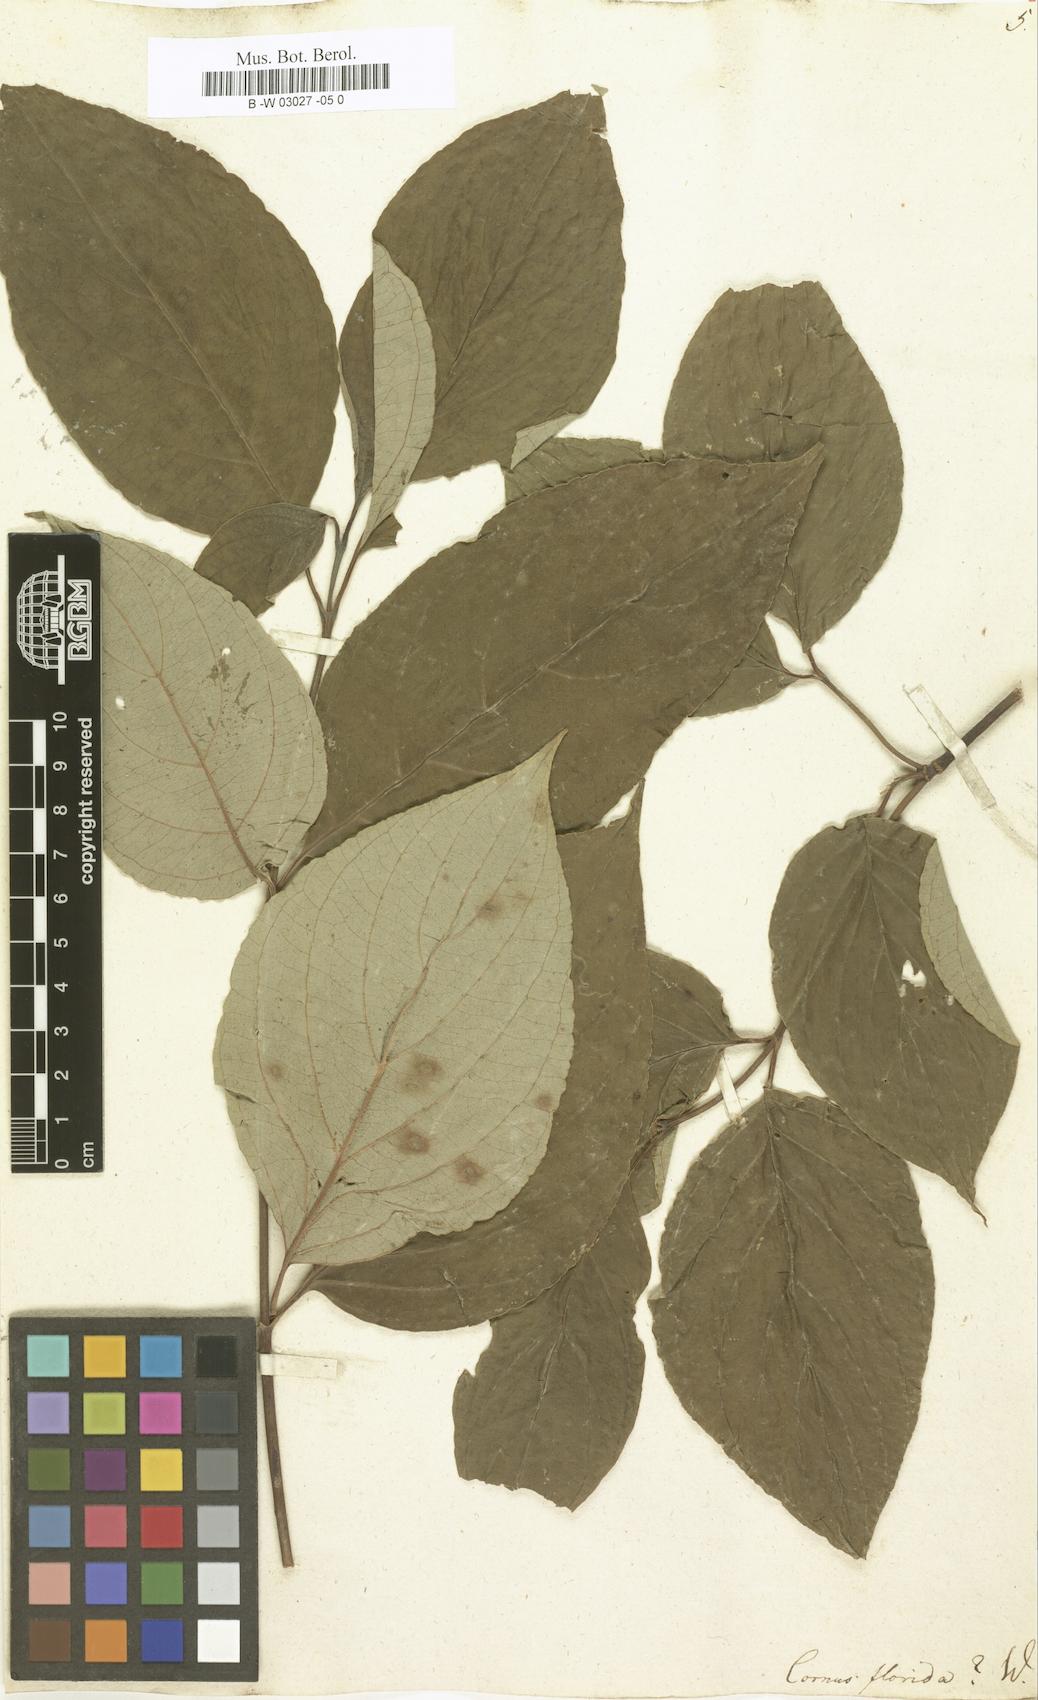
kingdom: Plantae
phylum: Tracheophyta
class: Magnoliopsida
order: Cornales
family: Cornaceae
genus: Cornus
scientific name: Cornus florida
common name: Flowering dogwood
